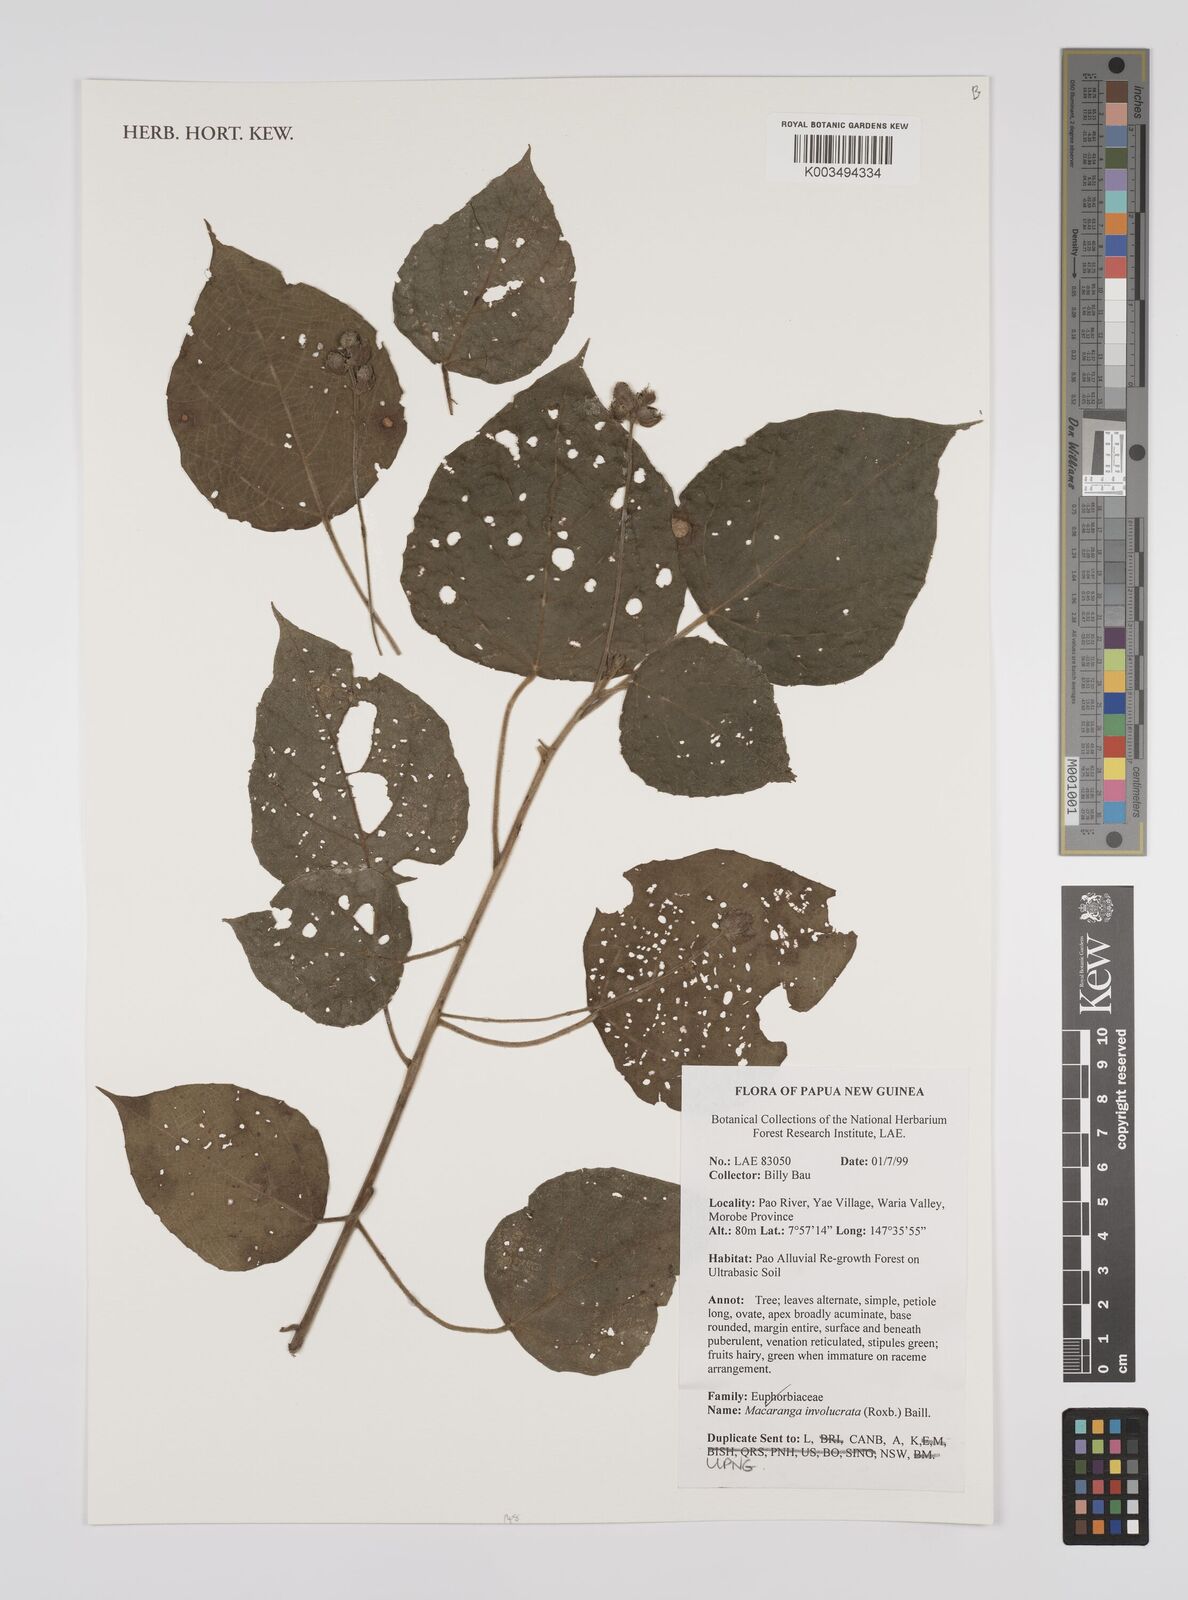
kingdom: Plantae
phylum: Tracheophyta
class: Magnoliopsida
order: Malpighiales
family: Euphorbiaceae
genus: Macaranga
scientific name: Macaranga involucrata
